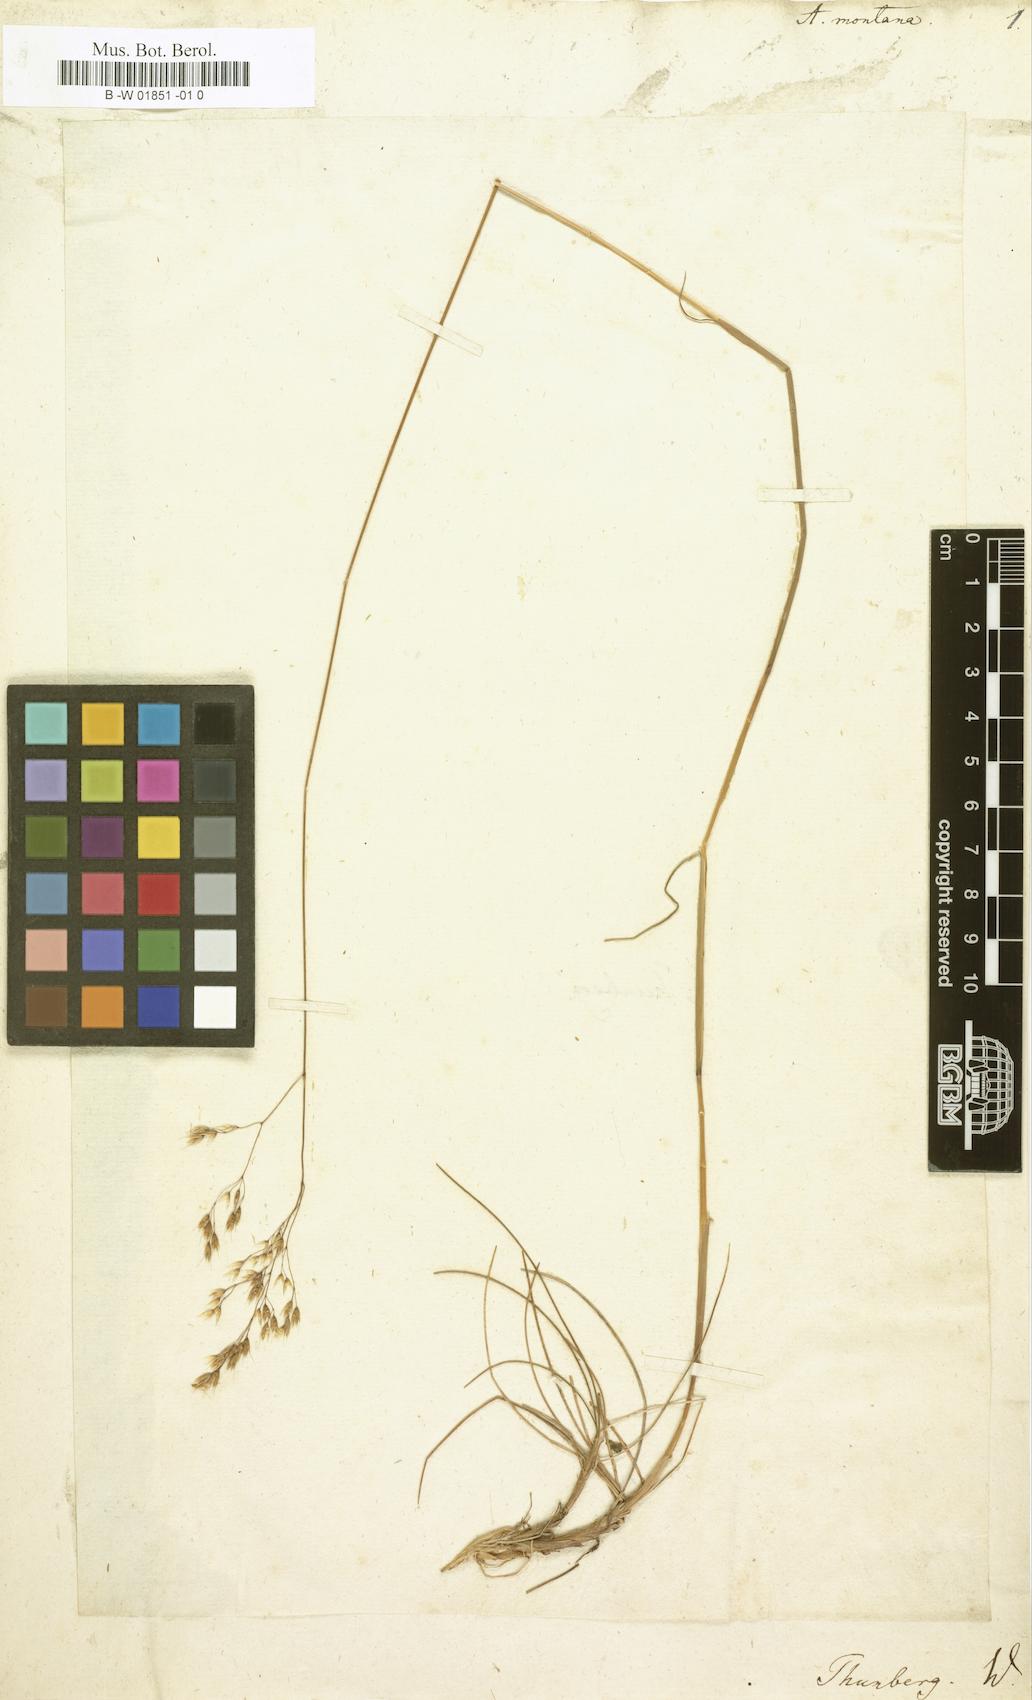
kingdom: Plantae
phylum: Tracheophyta
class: Liliopsida
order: Poales
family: Poaceae
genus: Aira
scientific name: Aira montana
